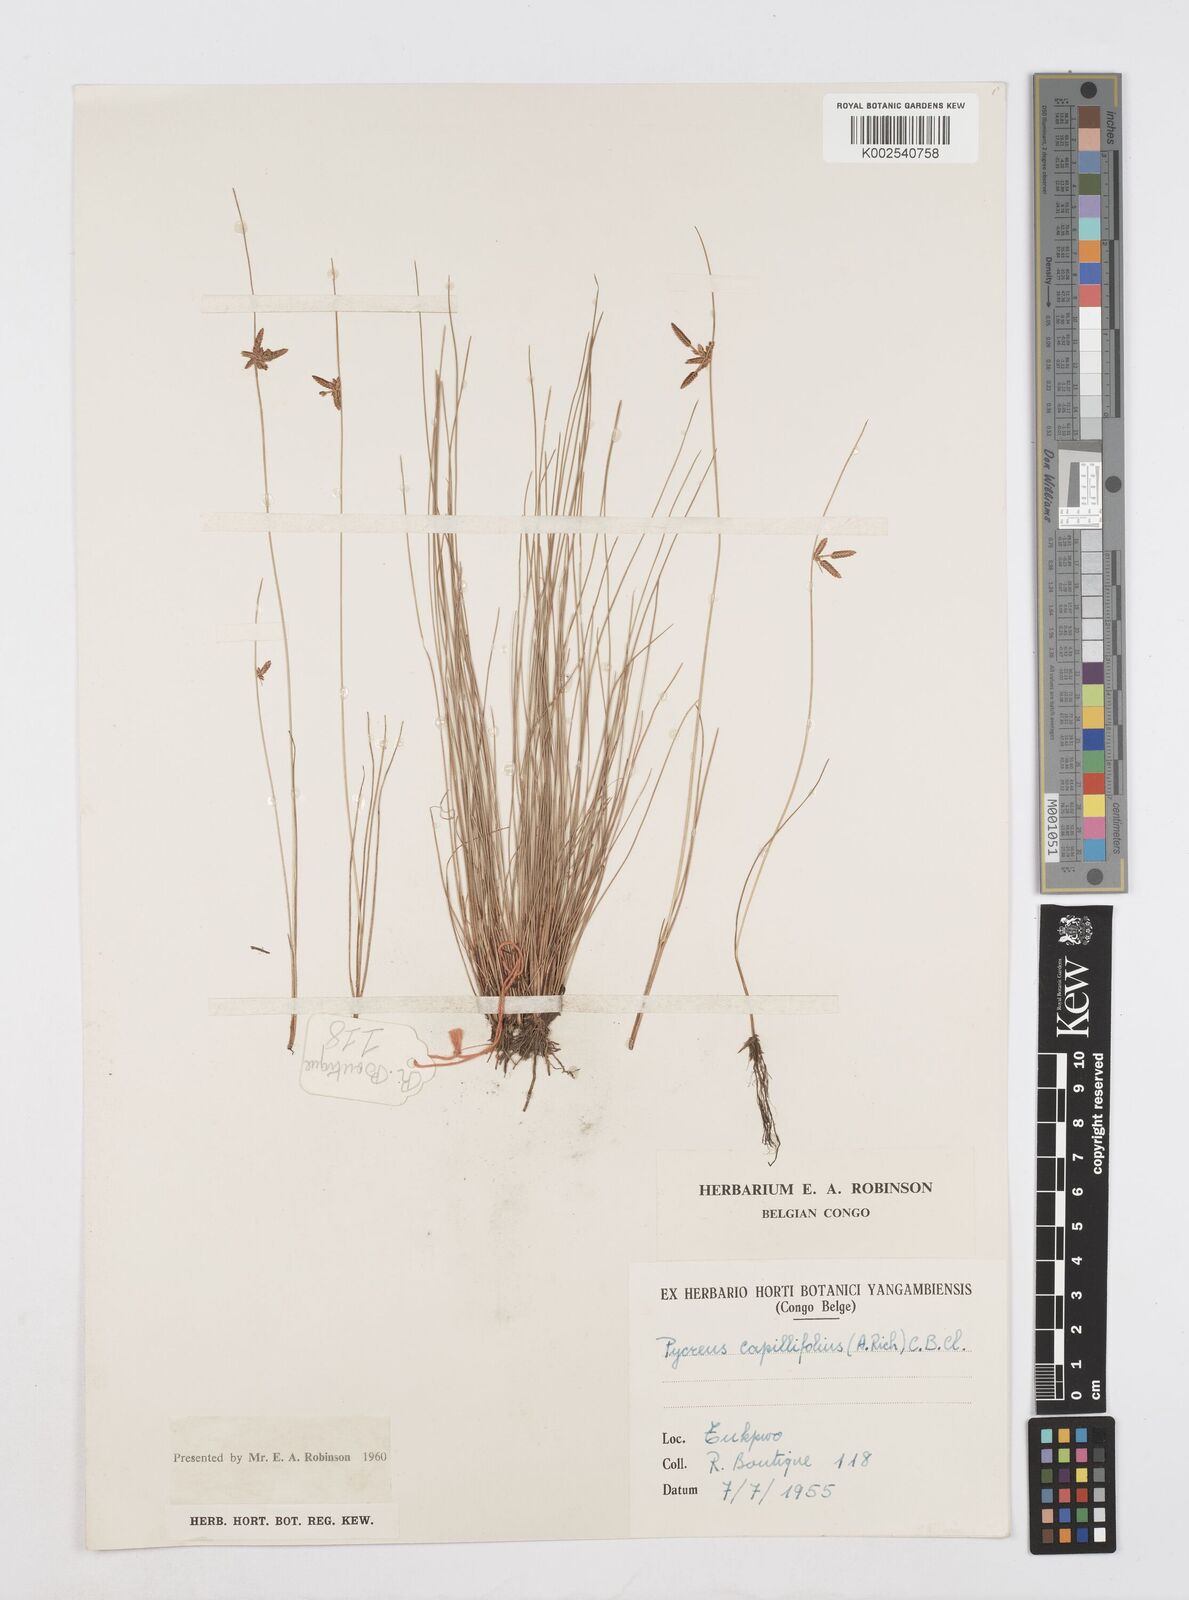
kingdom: Plantae
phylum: Tracheophyta
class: Liliopsida
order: Poales
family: Cyperaceae
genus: Cyperus
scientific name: Cyperus capillifolius
